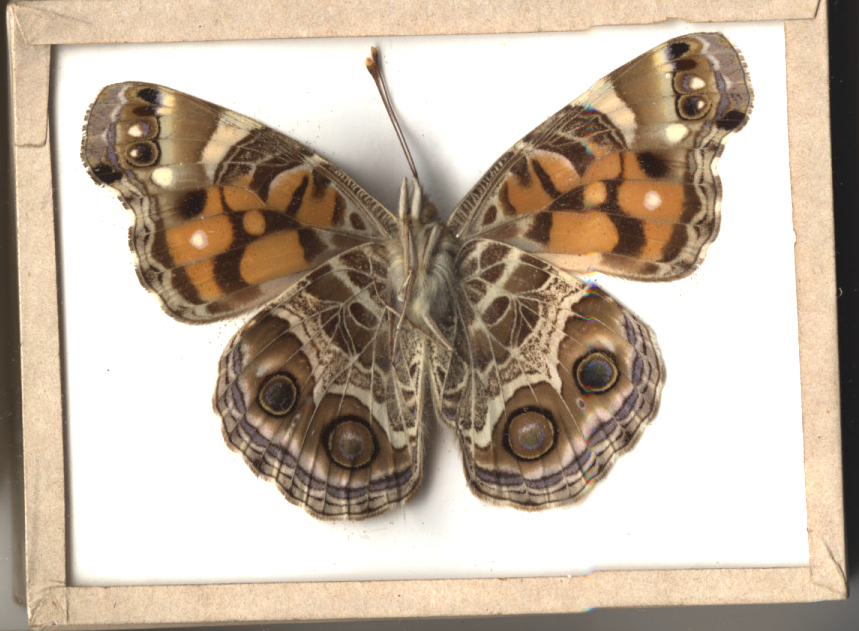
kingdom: Animalia
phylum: Arthropoda
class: Insecta
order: Lepidoptera
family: Nymphalidae
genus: Vanessa
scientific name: Vanessa virginiensis
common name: American Lady
